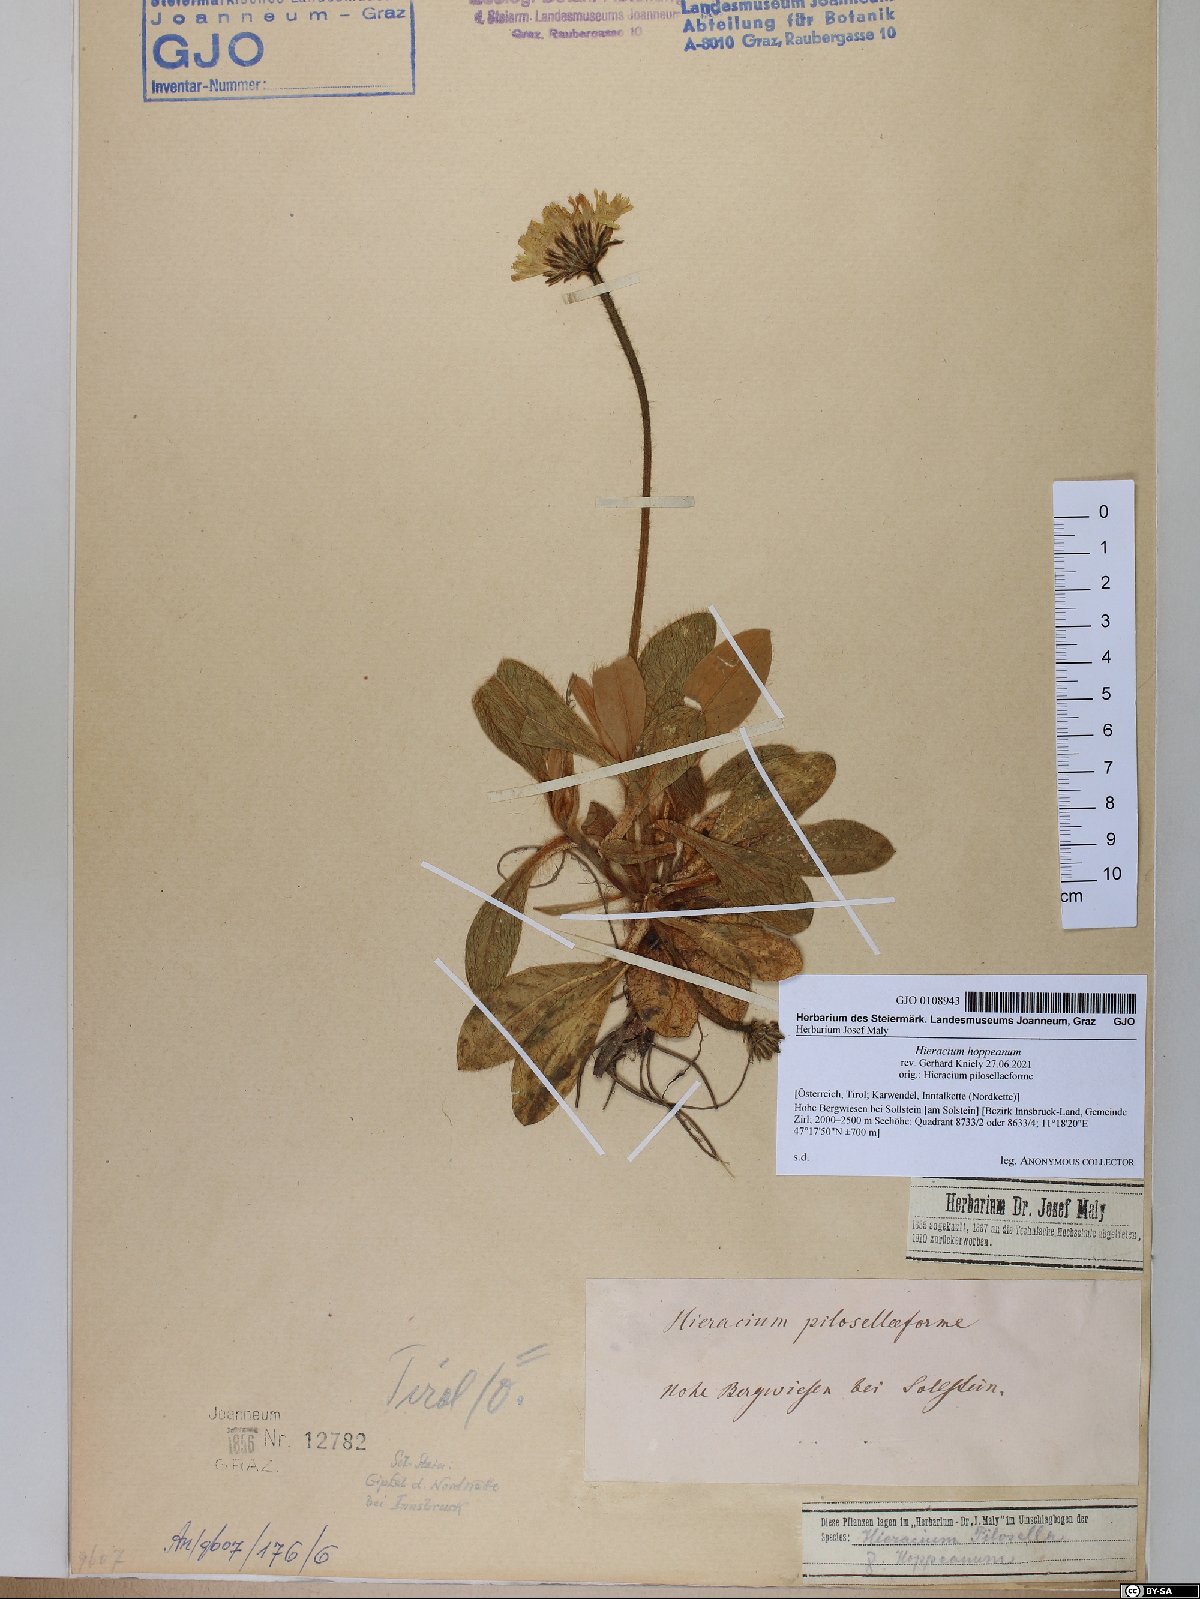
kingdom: Plantae
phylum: Tracheophyta
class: Magnoliopsida
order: Asterales
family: Asteraceae
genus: Pilosella
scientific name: Pilosella hoppeana
